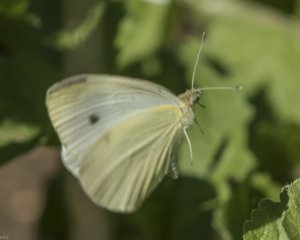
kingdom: Animalia
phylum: Arthropoda
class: Insecta
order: Lepidoptera
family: Pieridae
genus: Pieris
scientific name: Pieris rapae
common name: Cabbage White
